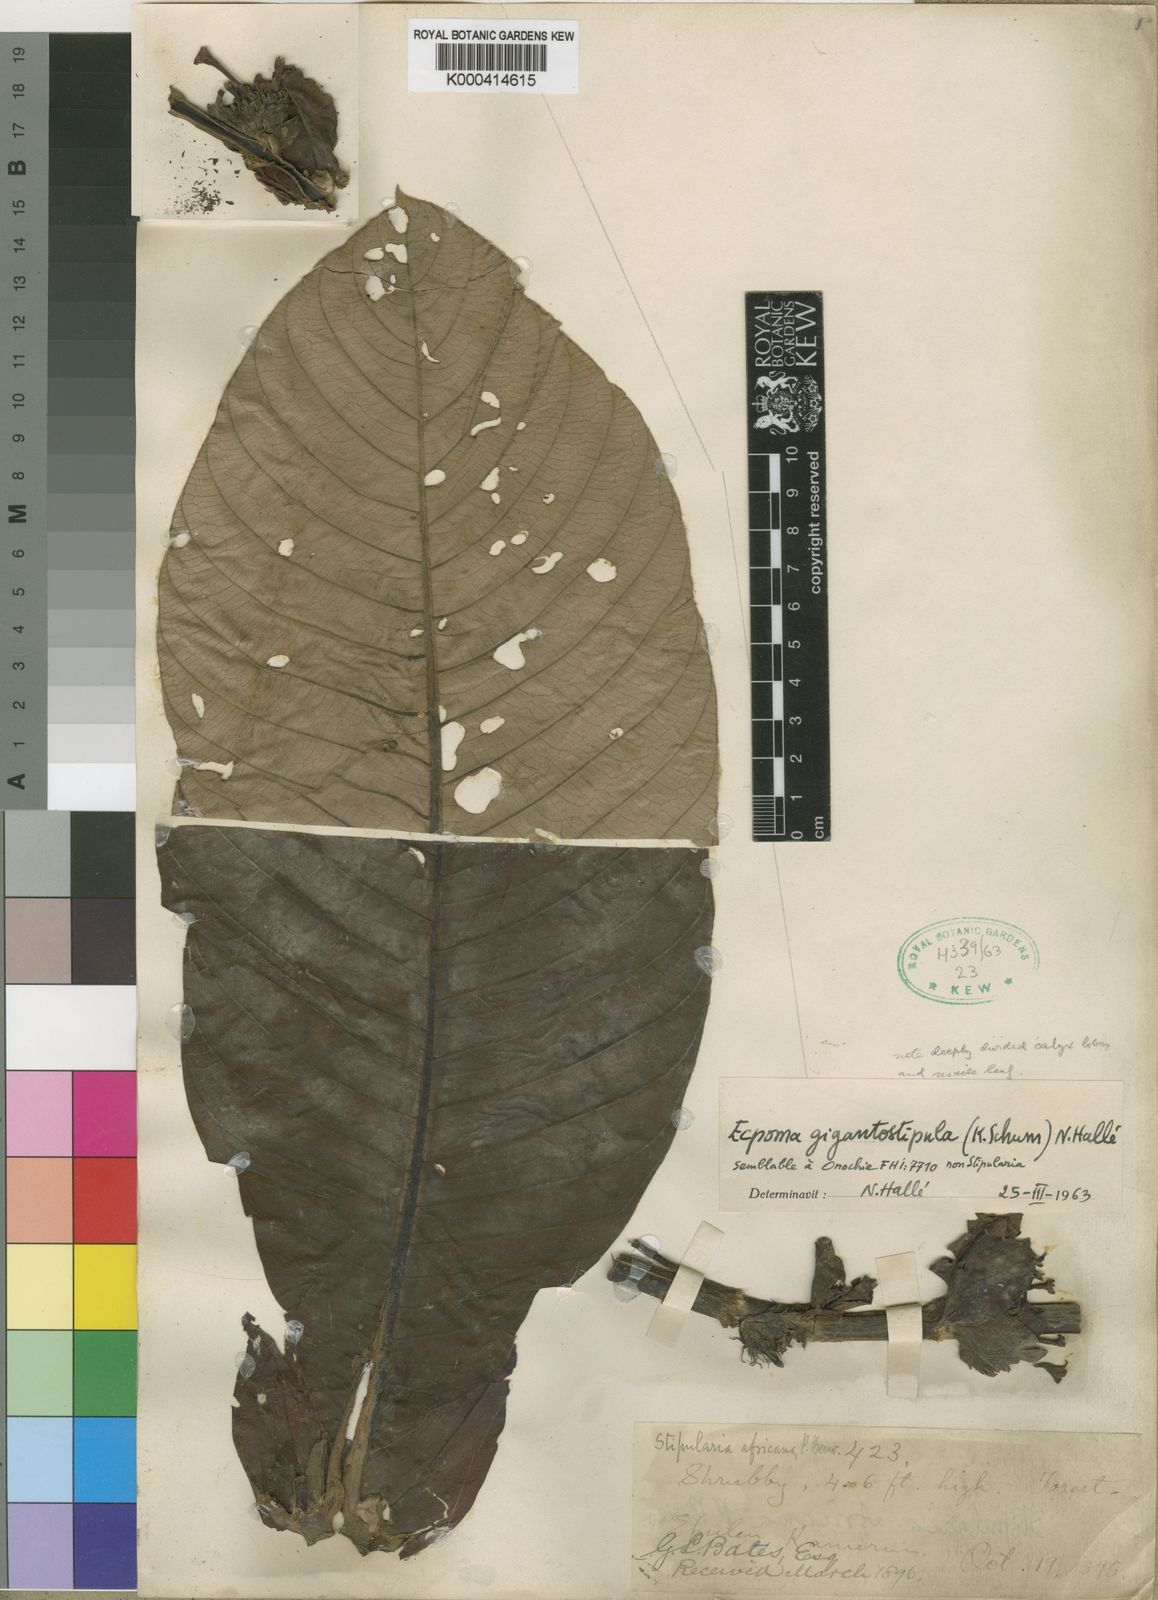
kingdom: Plantae
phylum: Tracheophyta
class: Magnoliopsida
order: Gentianales
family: Rubiaceae
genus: Sabicea
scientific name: Sabicea gigantostipula
